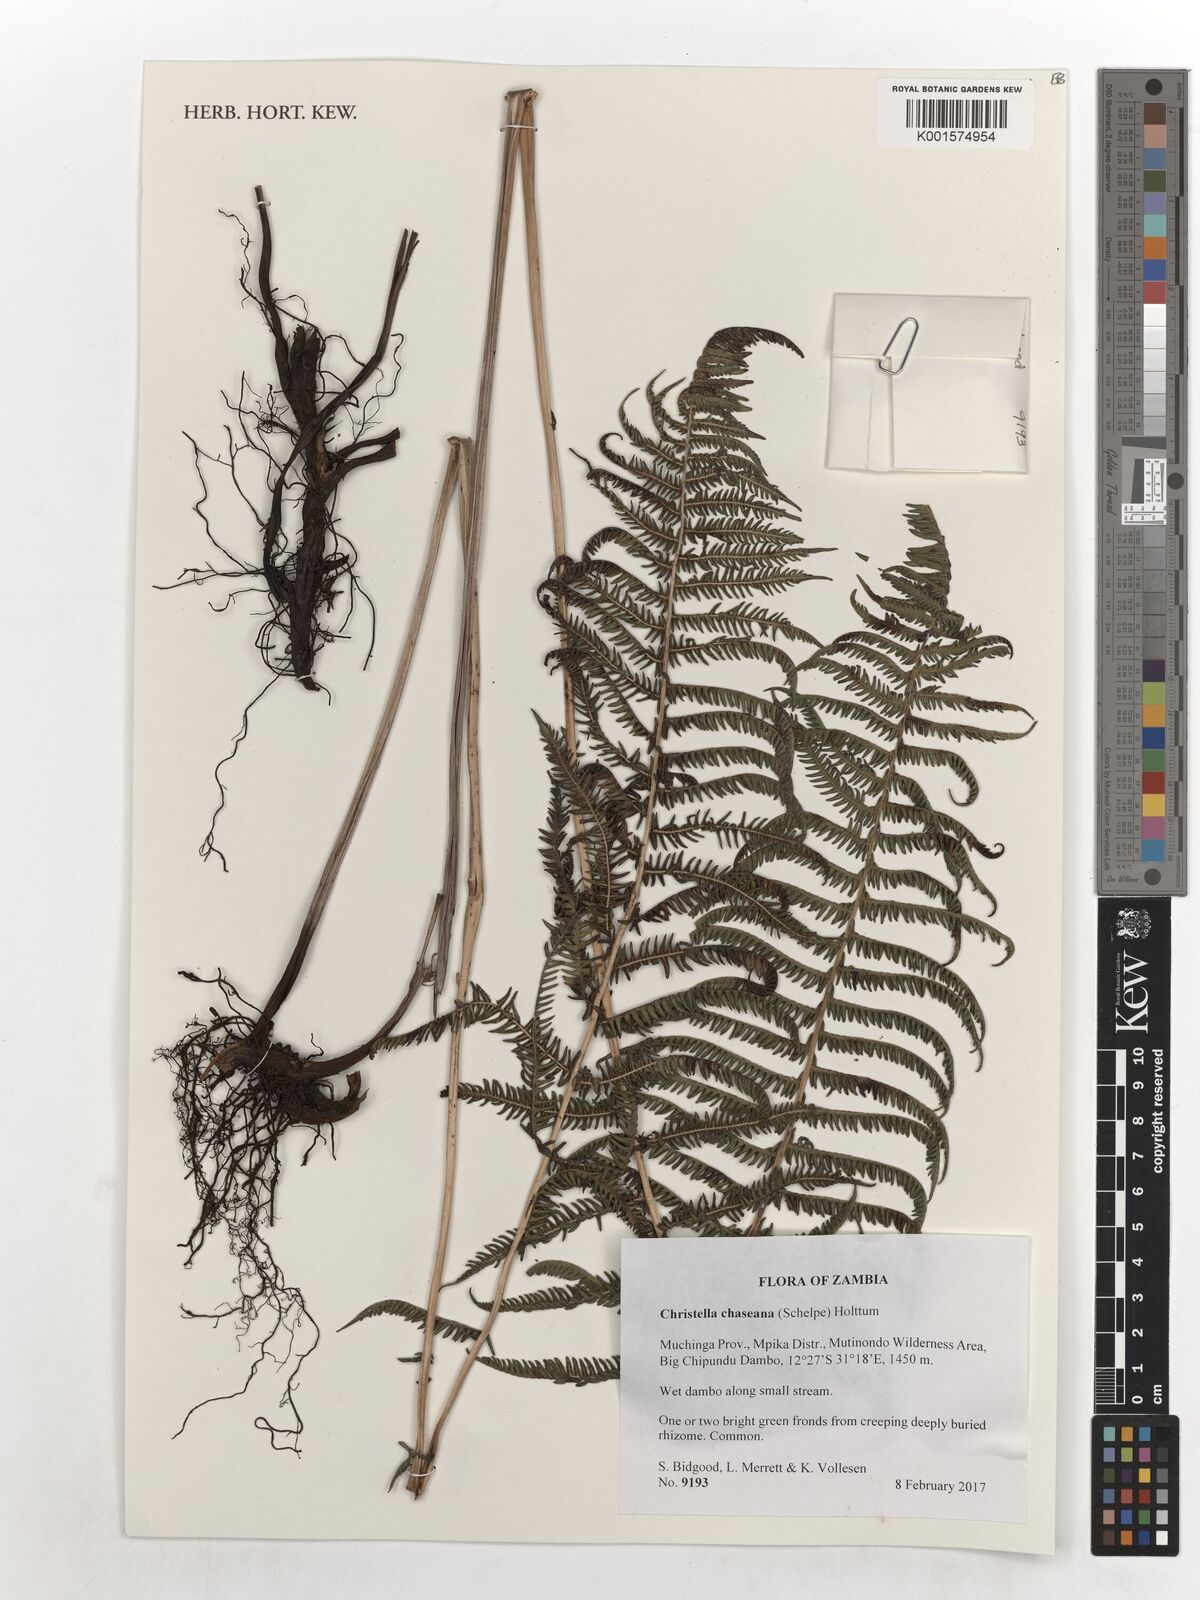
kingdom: Plantae
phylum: Tracheophyta
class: Polypodiopsida
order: Polypodiales
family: Thelypteridaceae
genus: Christella
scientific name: Christella chaseana
